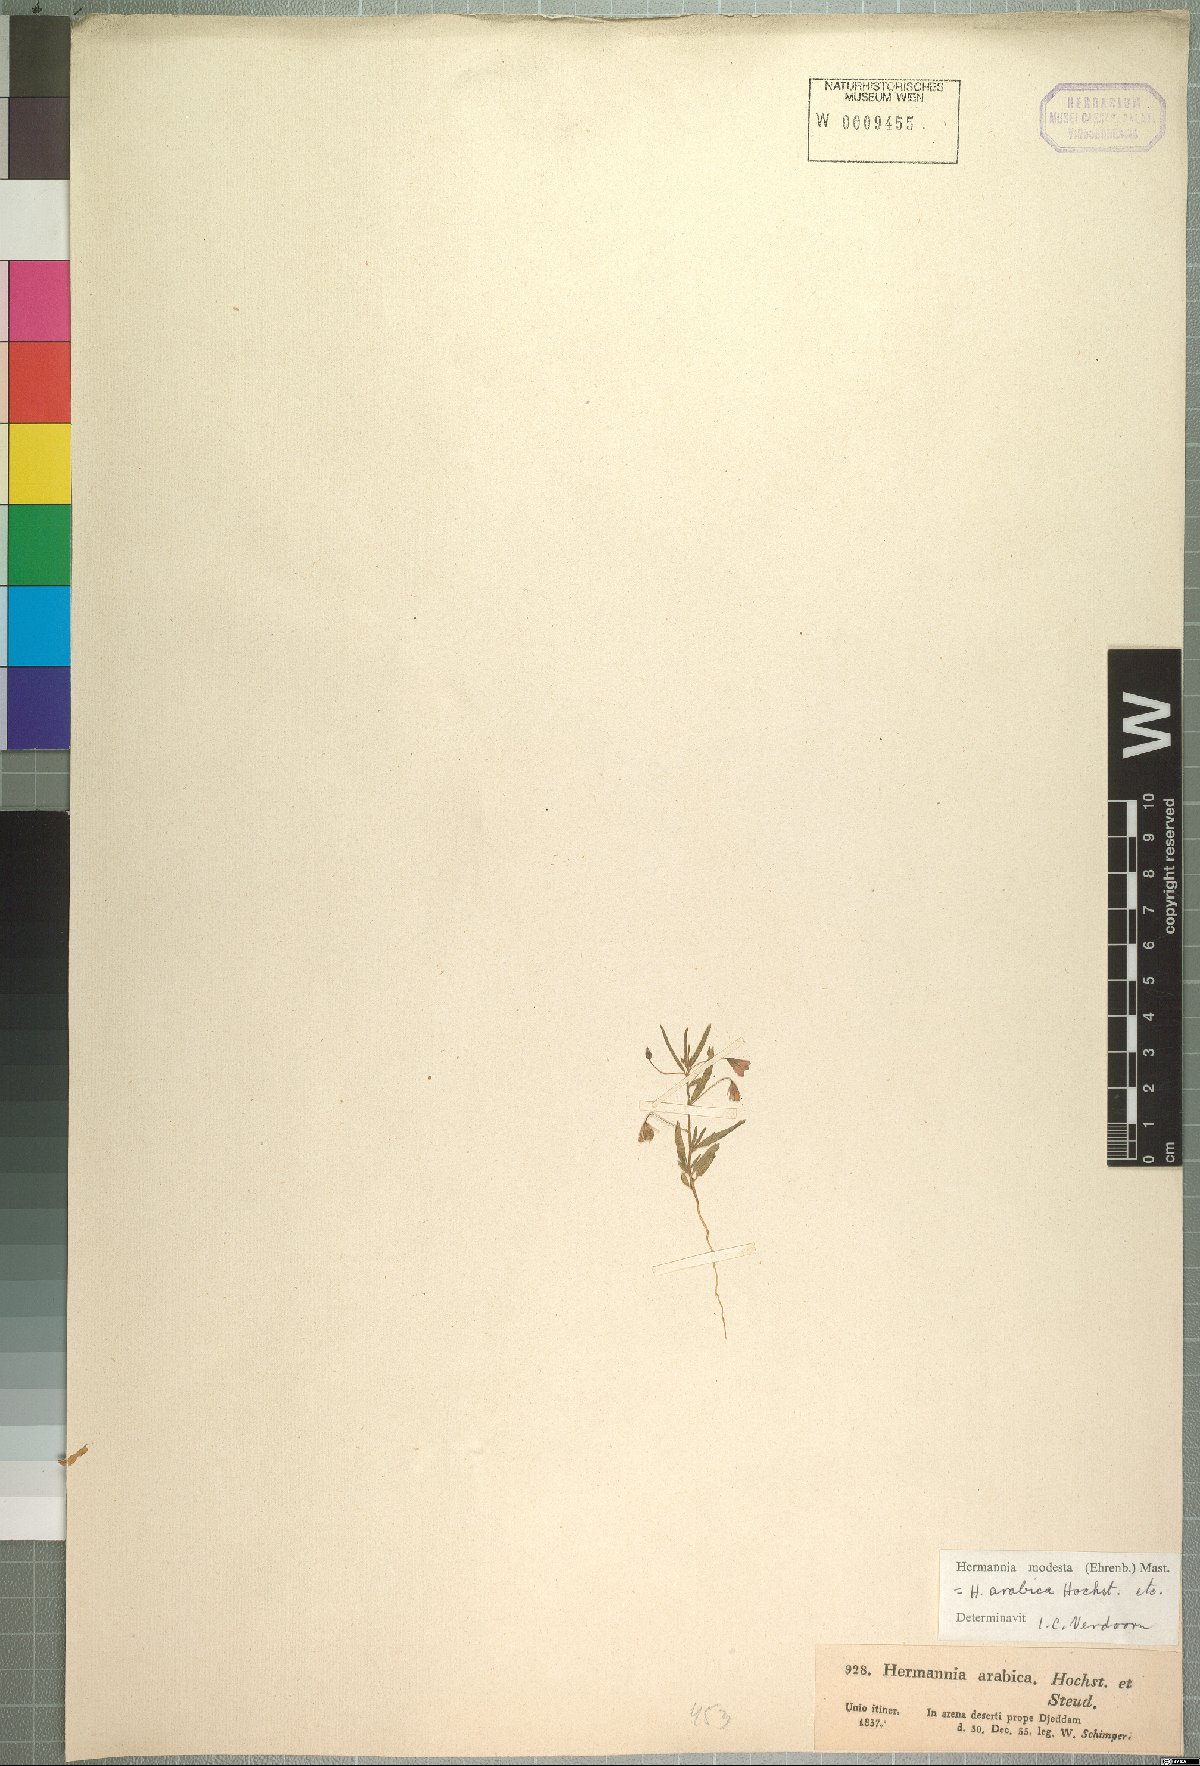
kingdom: Plantae
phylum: Tracheophyta
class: Magnoliopsida
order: Malvales
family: Malvaceae
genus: Hermannia
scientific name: Hermannia modesta
